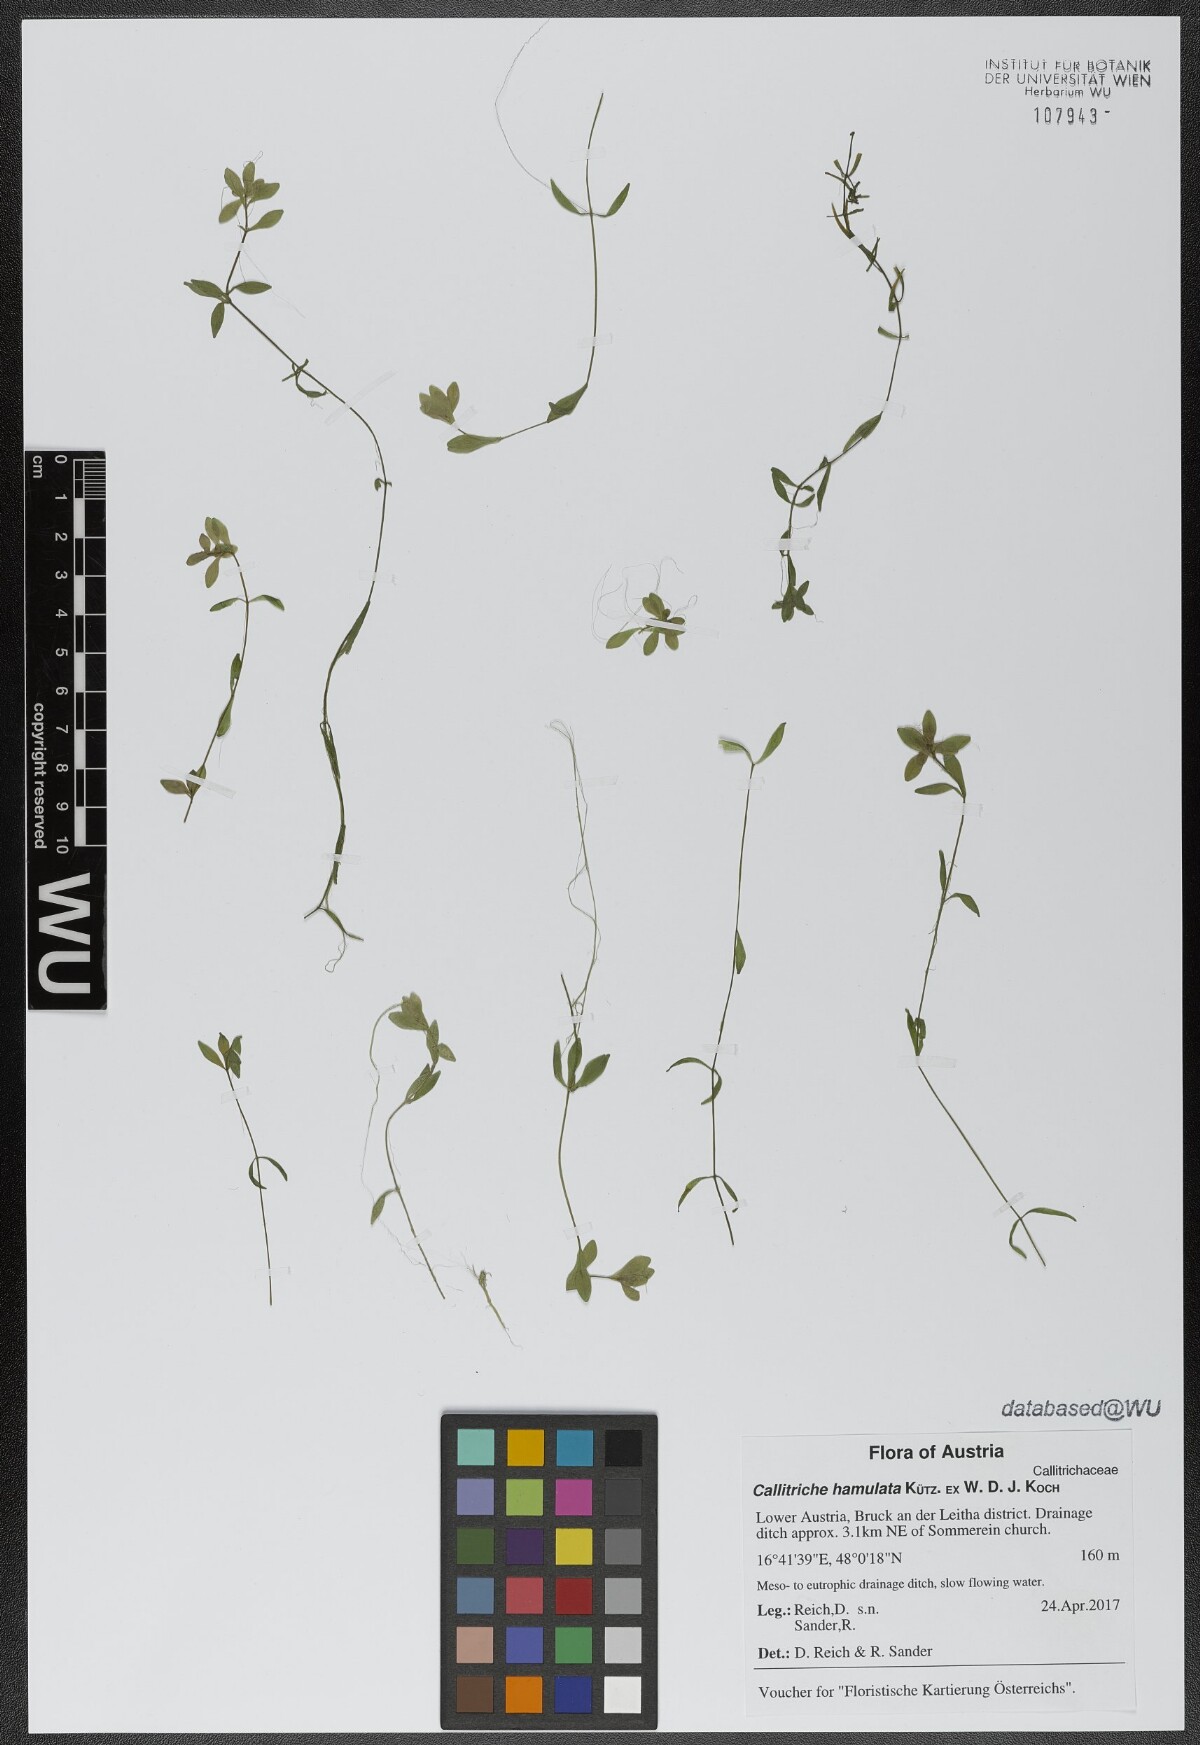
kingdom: Plantae
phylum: Tracheophyta
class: Magnoliopsida
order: Lamiales
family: Plantaginaceae
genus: Callitriche
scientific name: Callitriche cophocarpa
